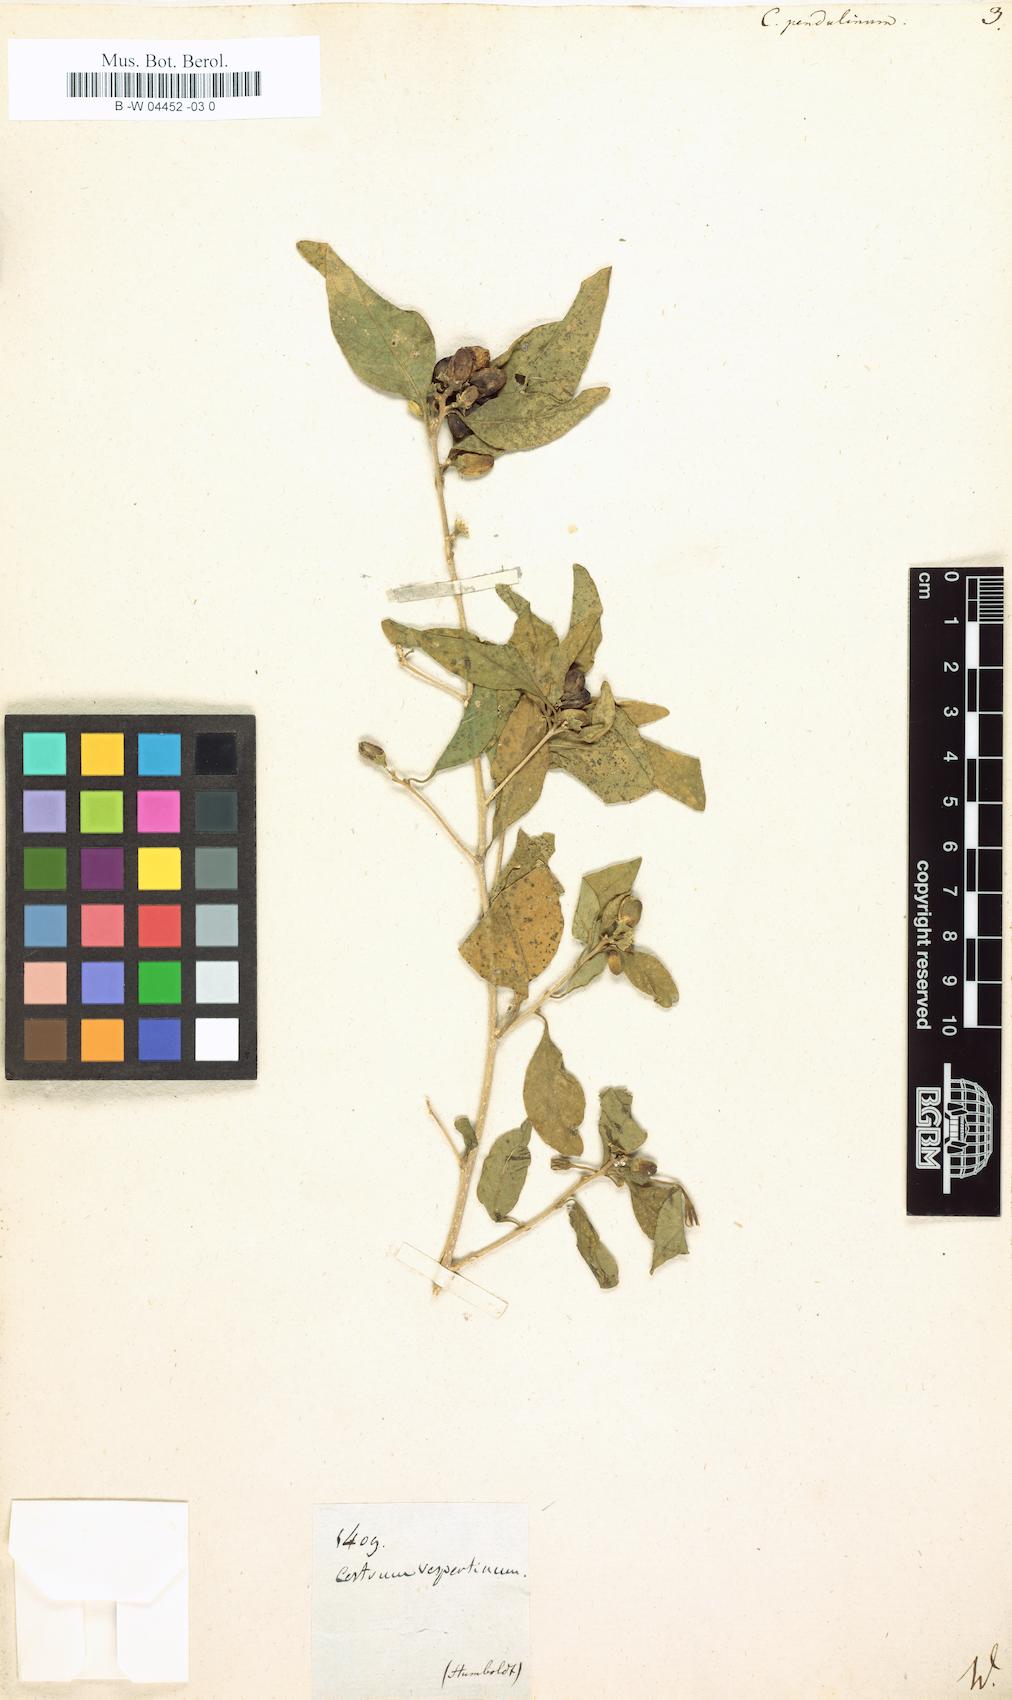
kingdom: Plantae
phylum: Tracheophyta
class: Magnoliopsida
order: Solanales
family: Solanaceae
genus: Cestrum
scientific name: Cestrum
